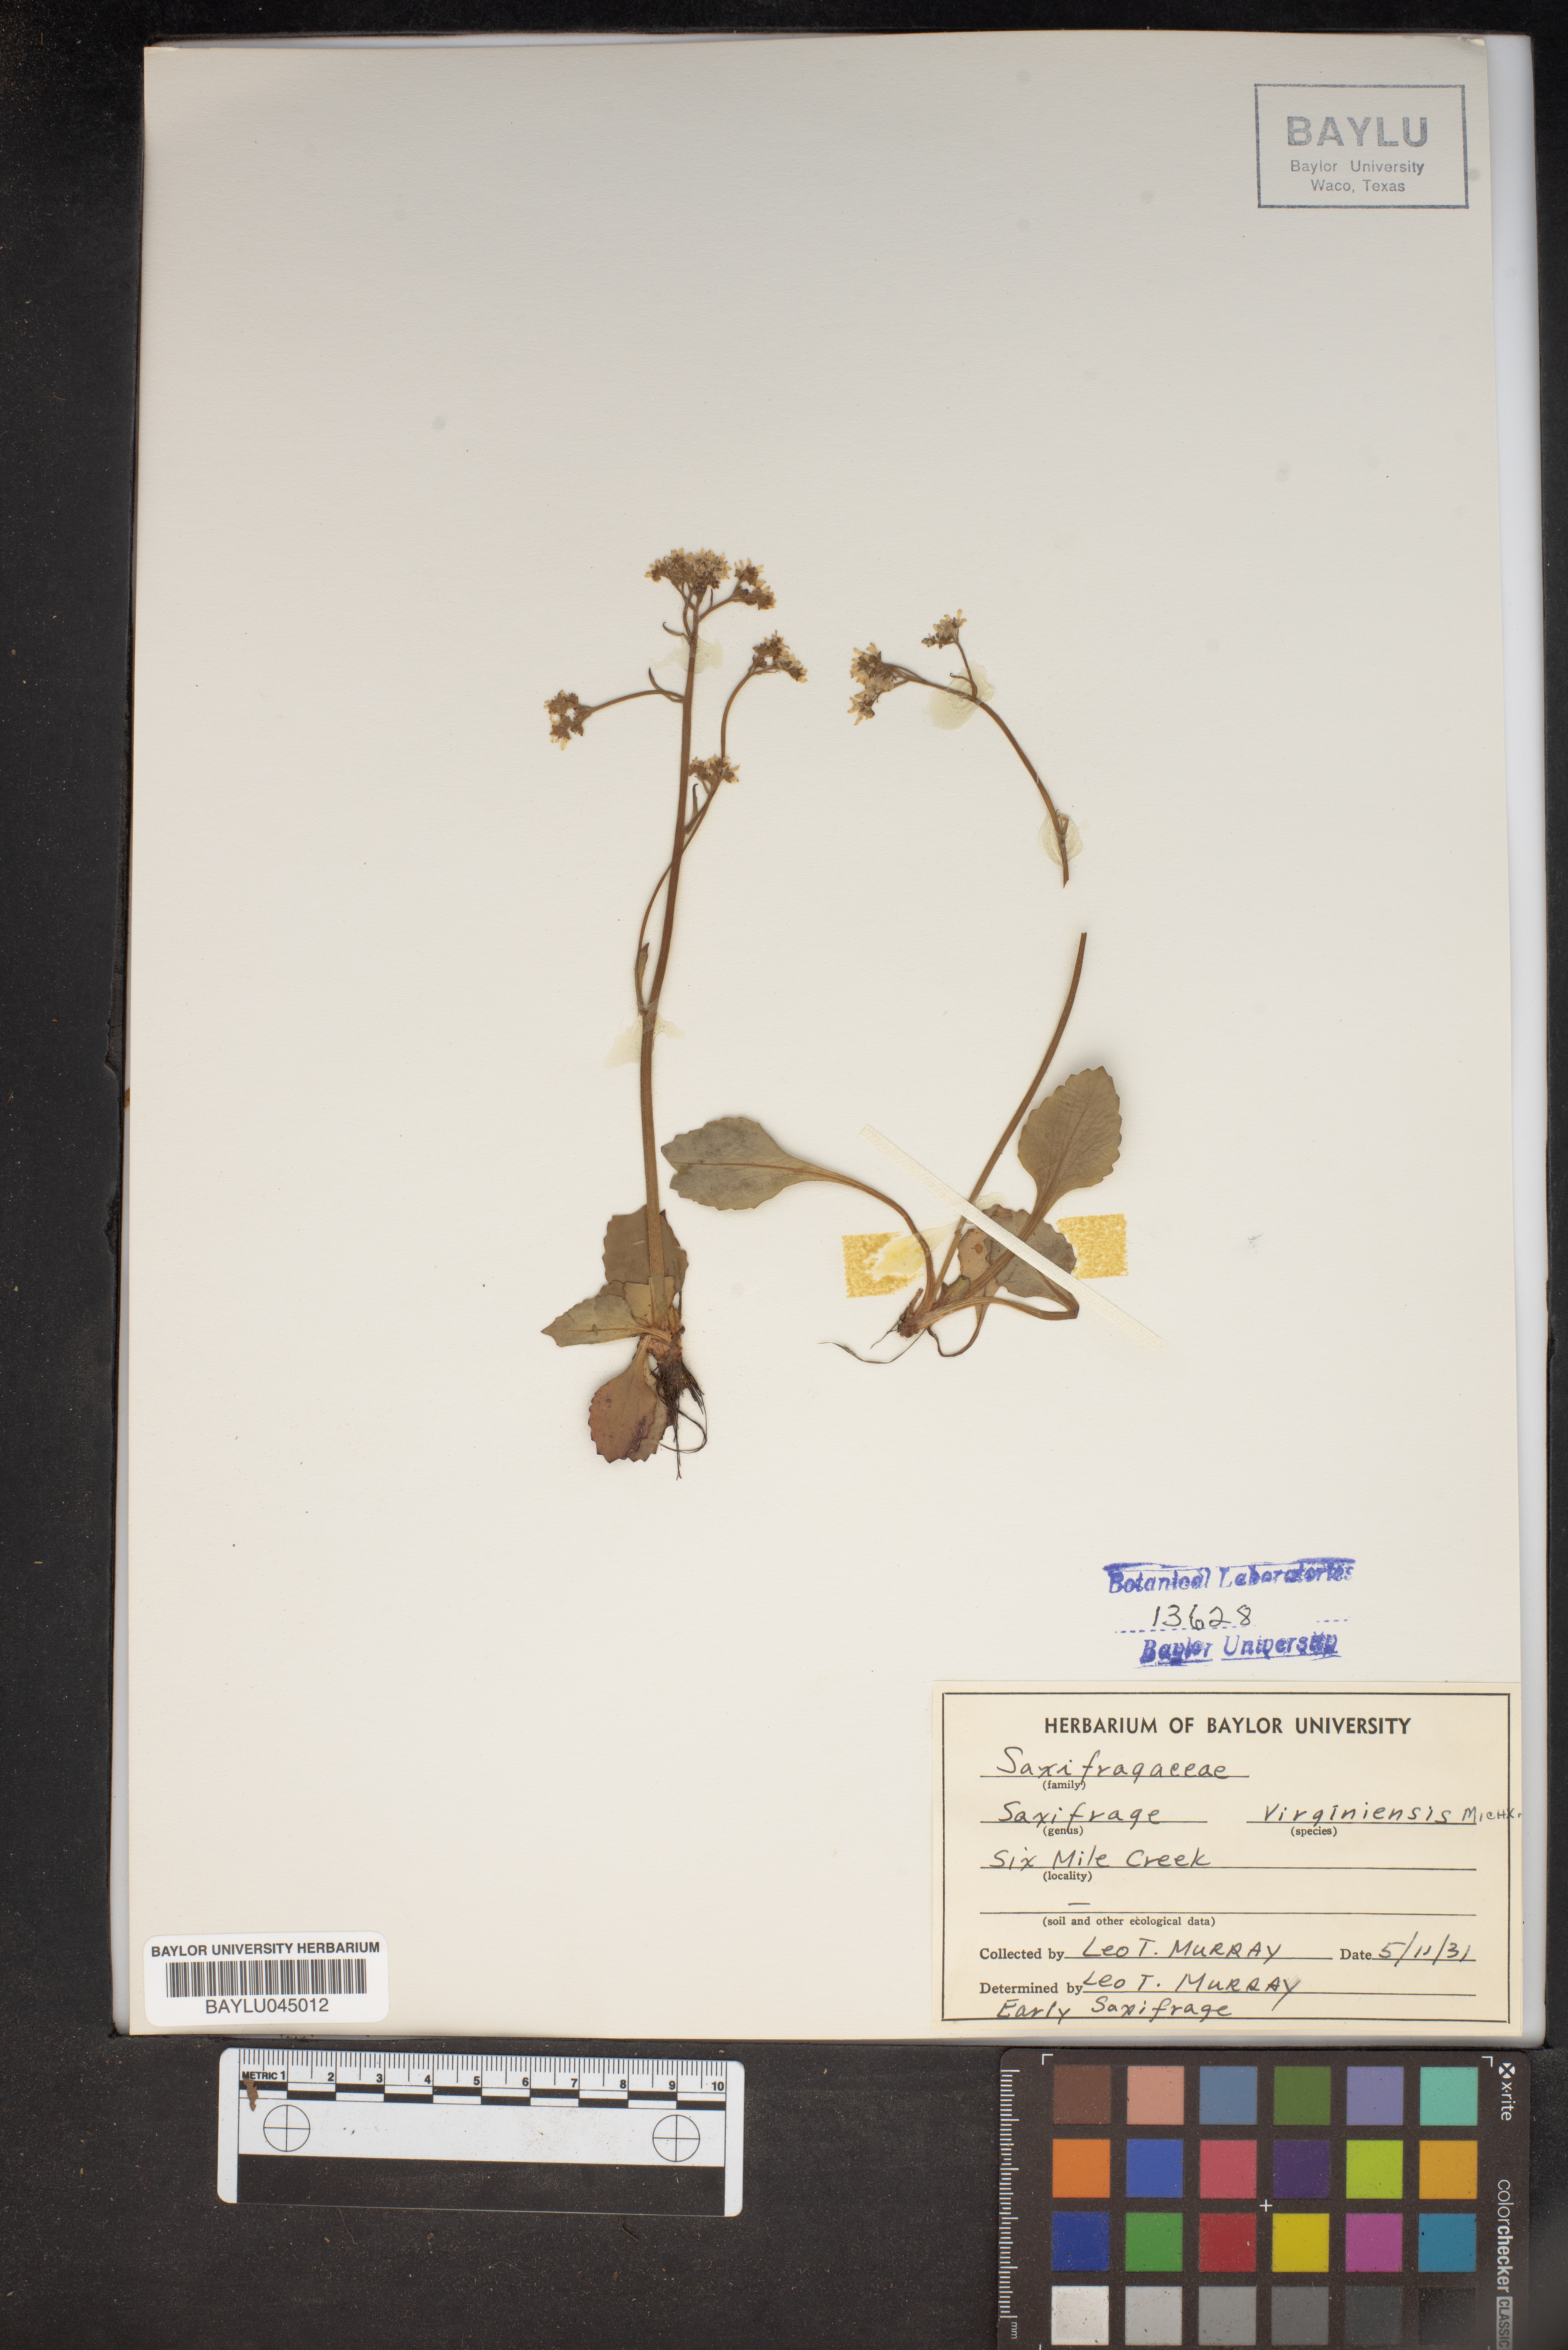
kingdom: Plantae
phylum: Tracheophyta
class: Magnoliopsida
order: Saxifragales
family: Saxifragaceae
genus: Micranthes
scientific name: Micranthes virginiensis
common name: Early saxifrage
